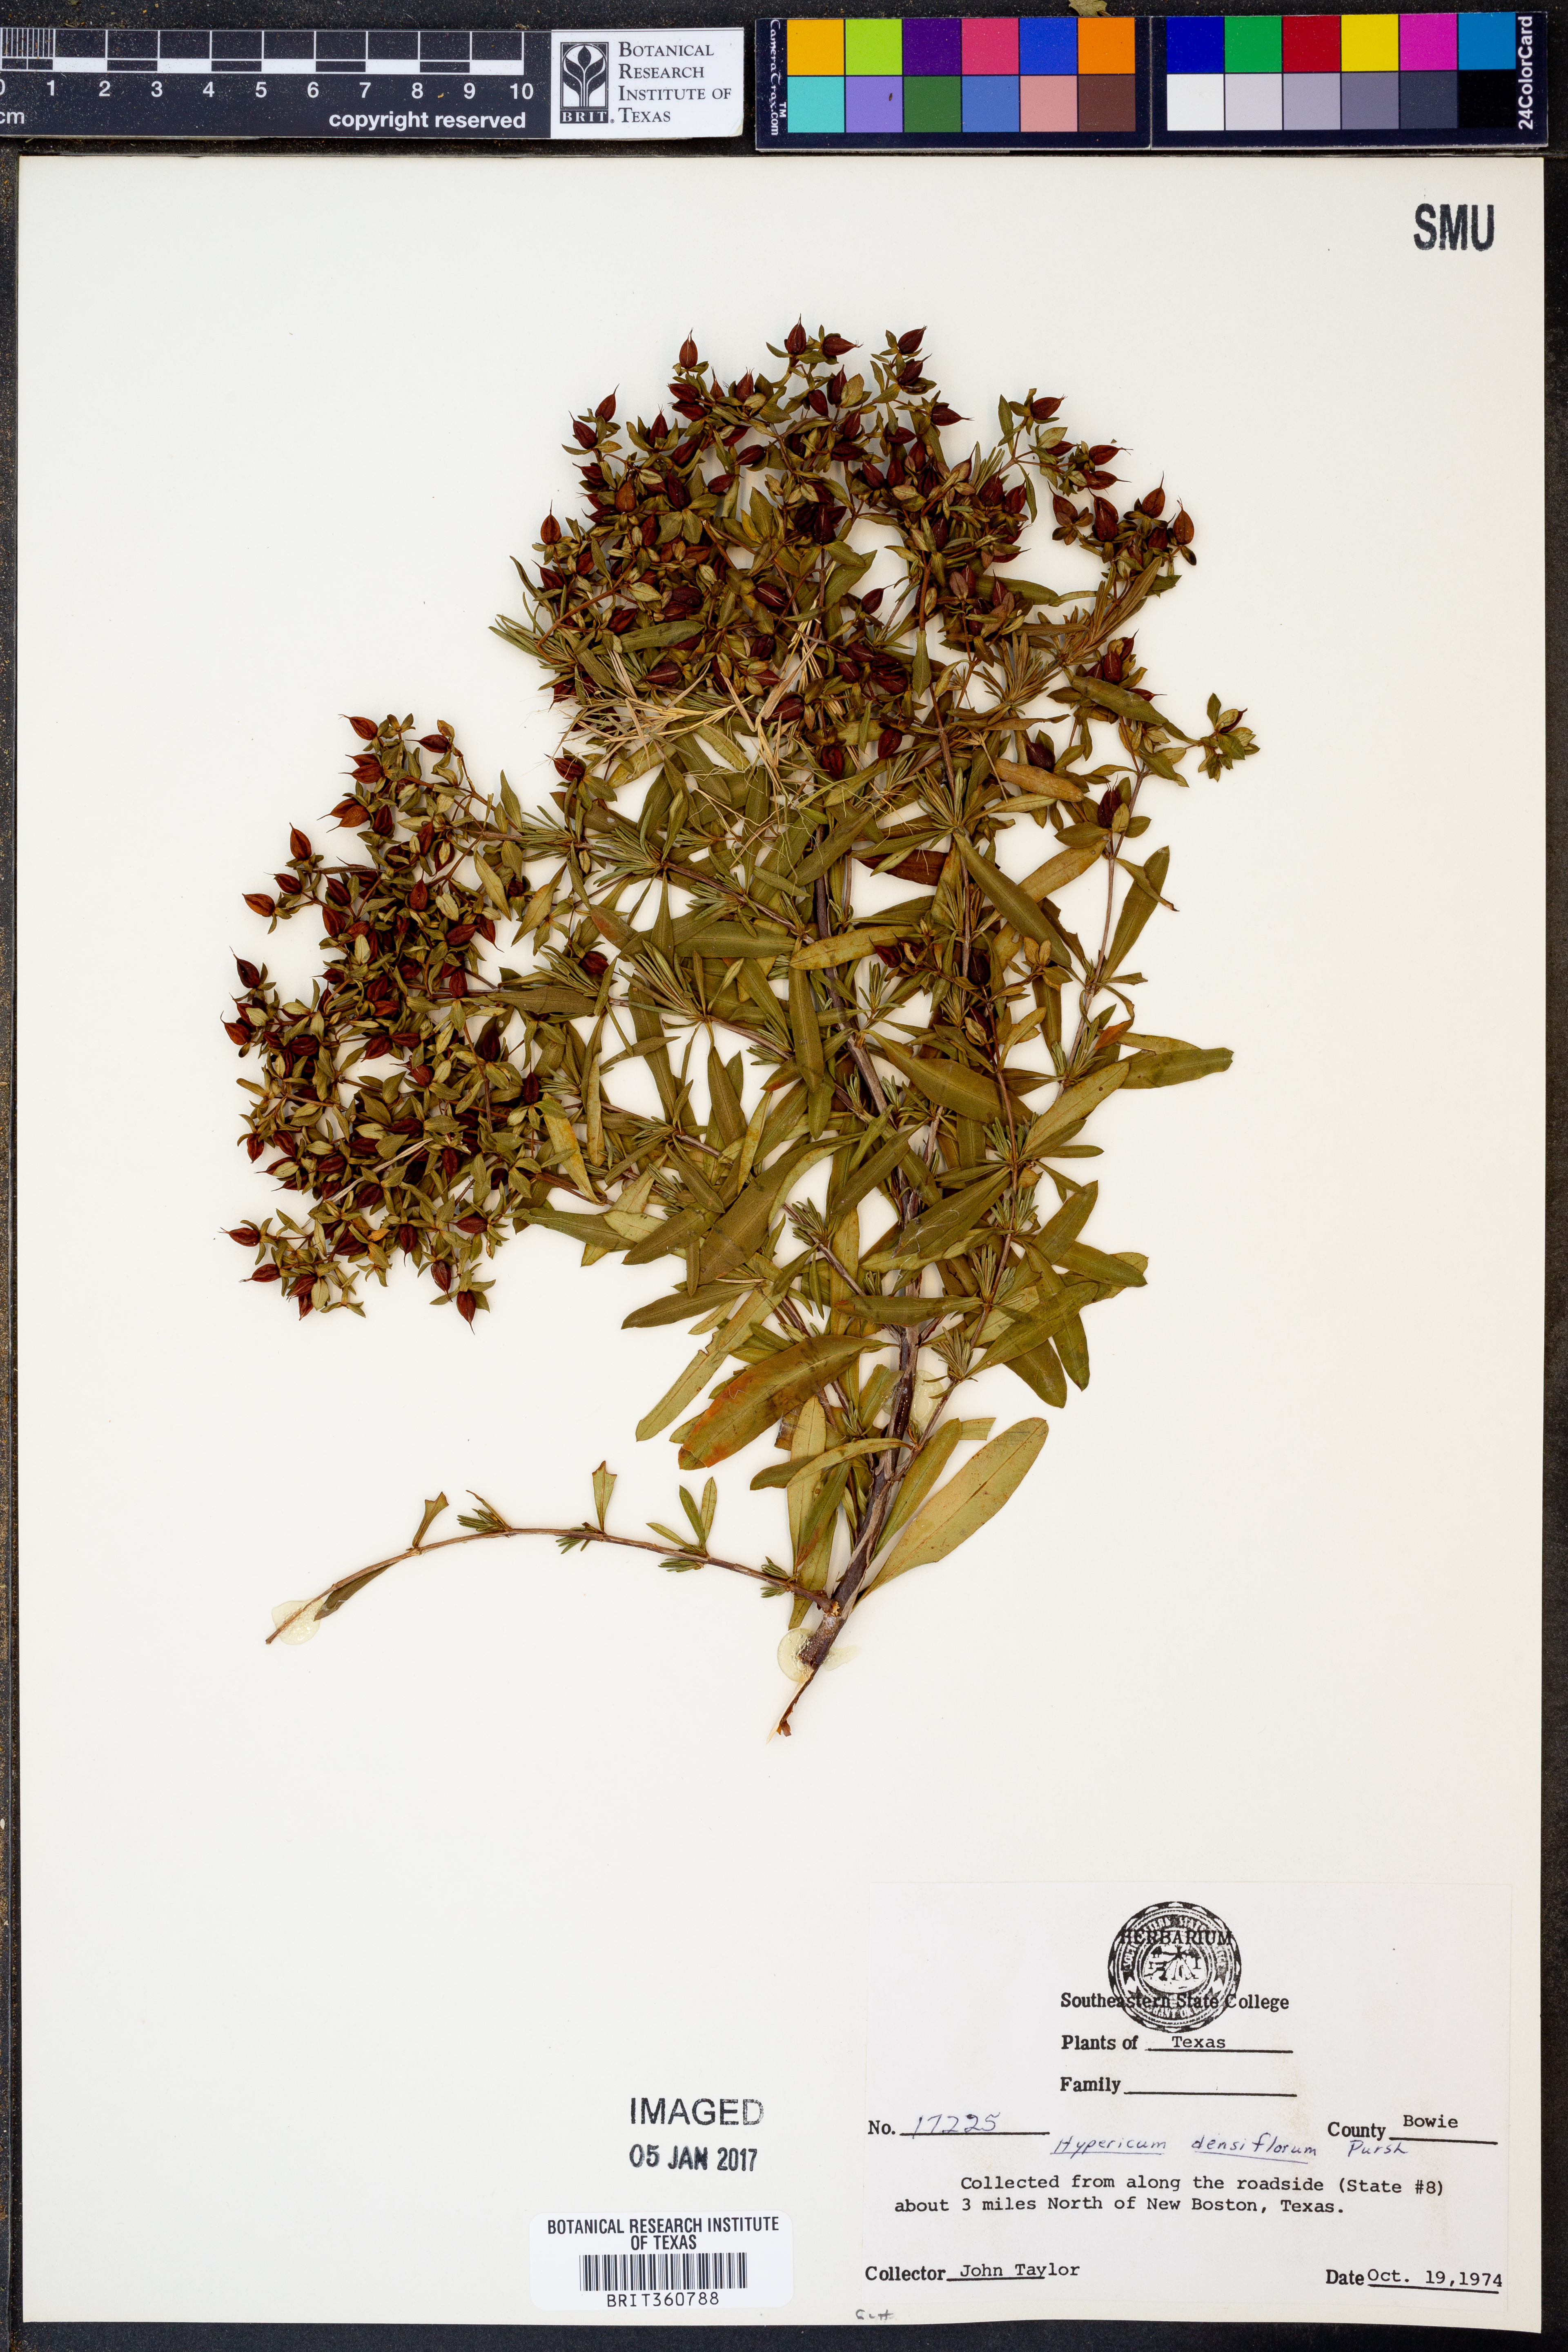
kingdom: Plantae
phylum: Tracheophyta
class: Magnoliopsida
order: Malpighiales
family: Hypericaceae
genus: Hypericum
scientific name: Hypericum densiflorum
